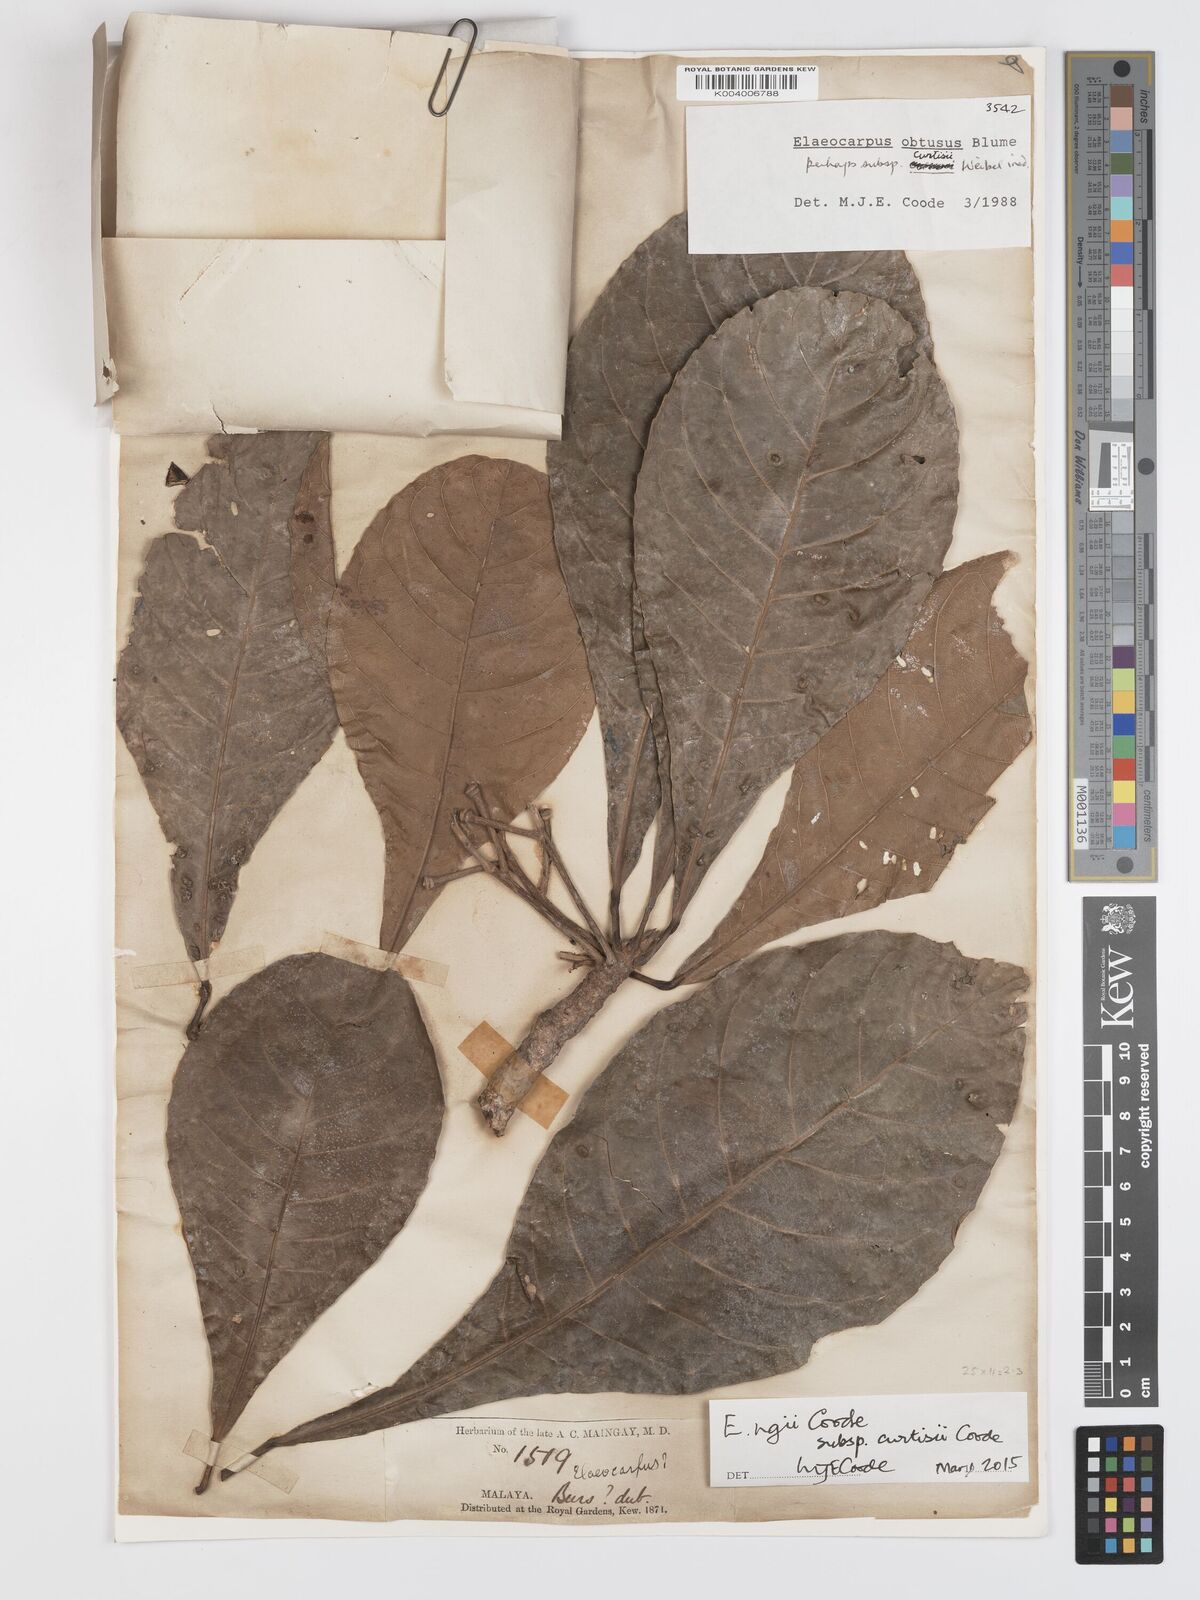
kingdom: Plantae
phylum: Tracheophyta
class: Magnoliopsida
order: Oxalidales
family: Elaeocarpaceae
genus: Elaeocarpus
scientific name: Elaeocarpus ngii
